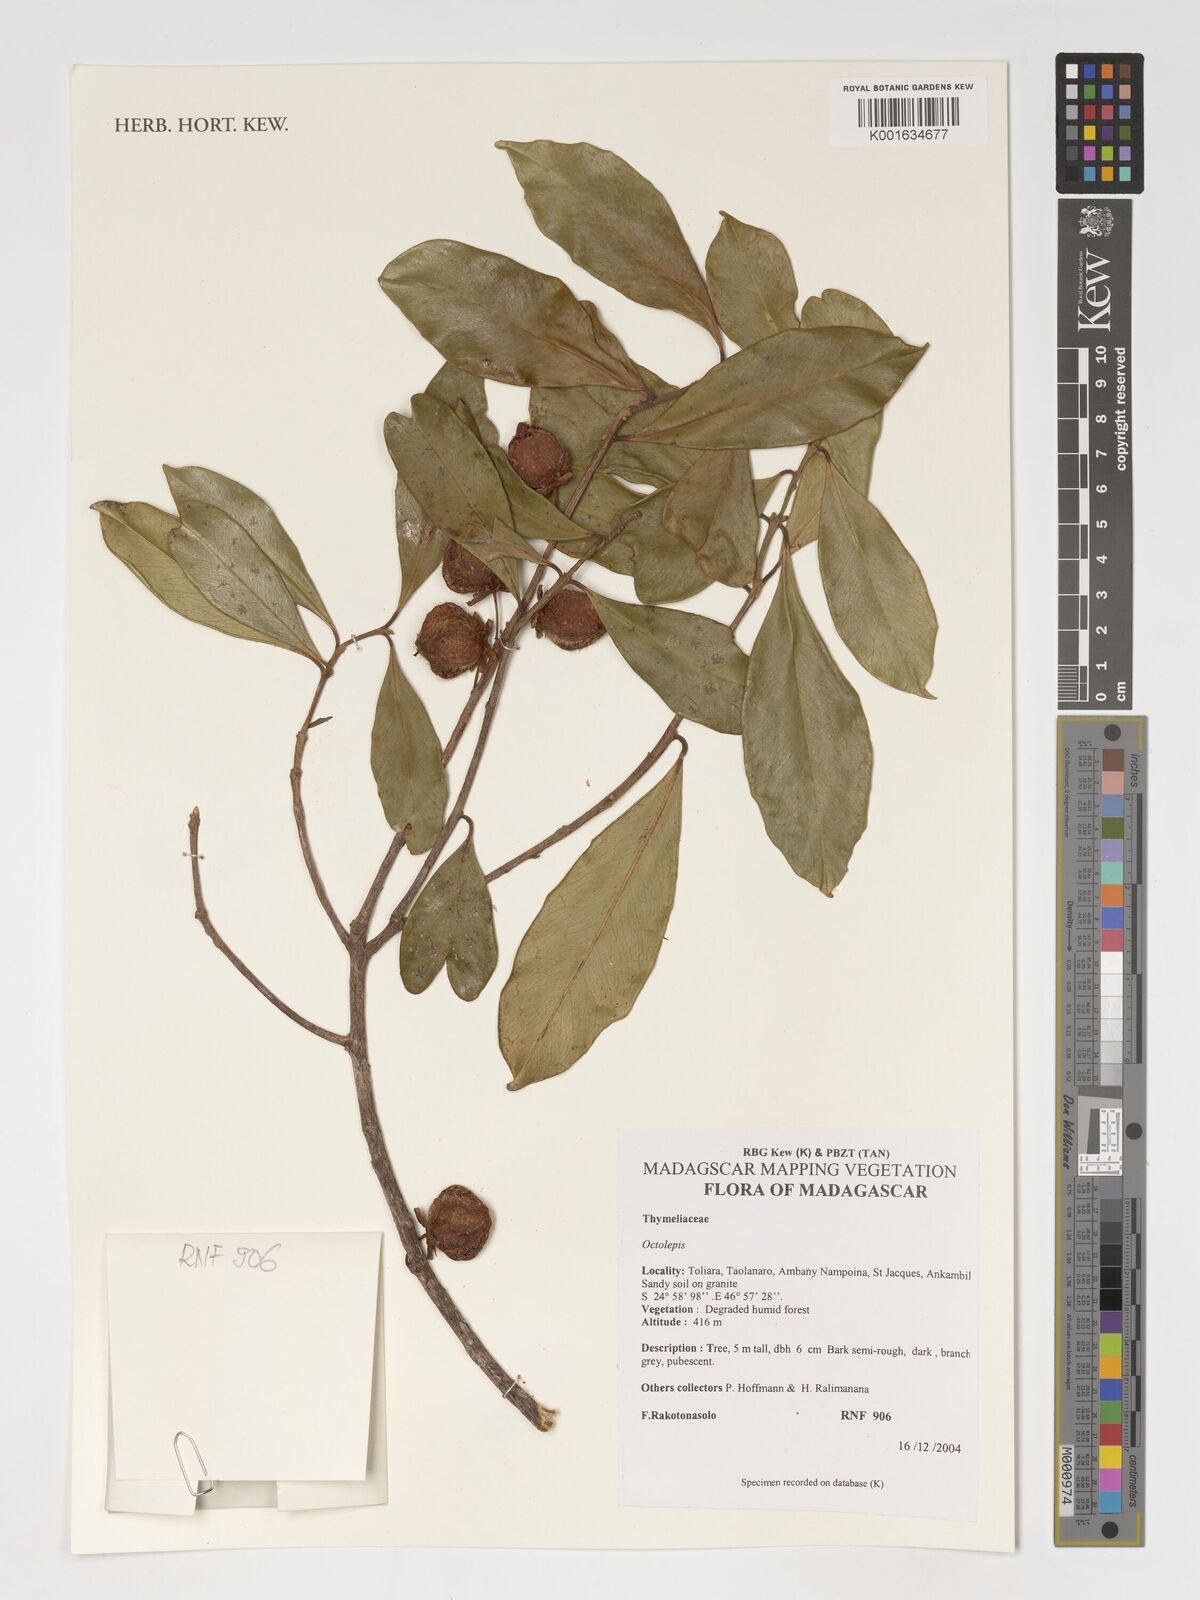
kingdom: Plantae
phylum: Tracheophyta
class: Magnoliopsida
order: Malvales
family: Thymelaeaceae
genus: Octolepis
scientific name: Octolepis
